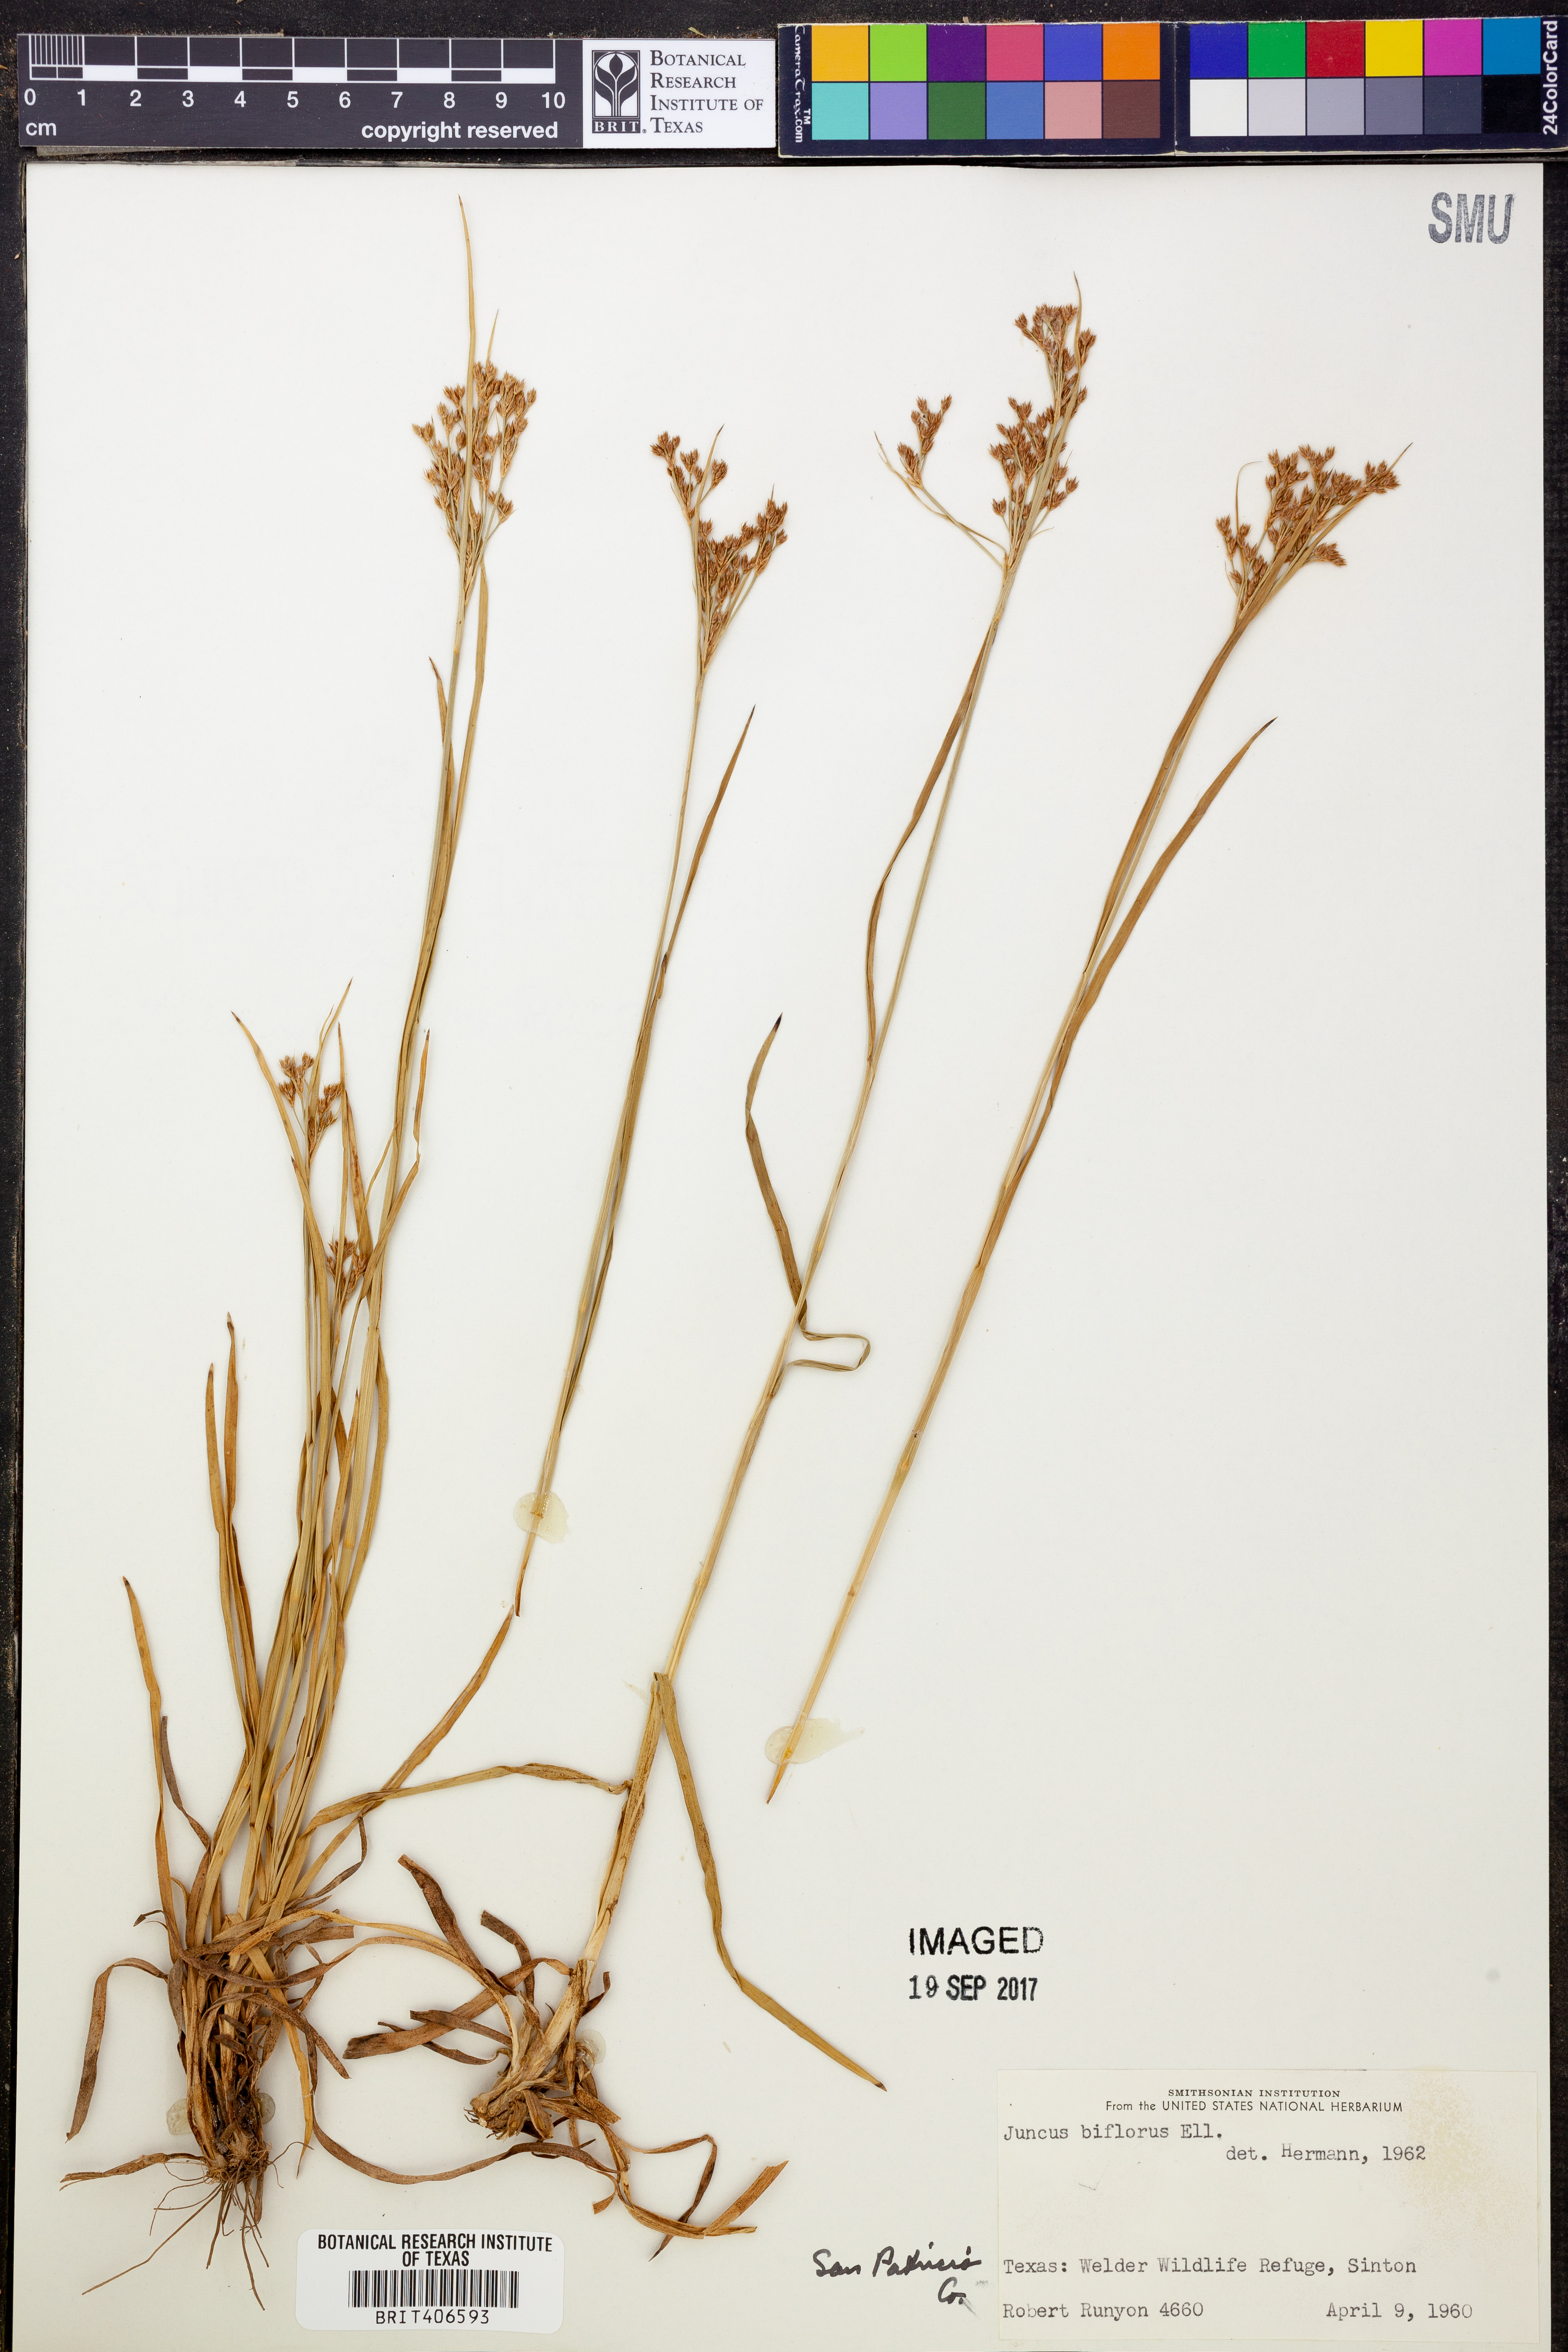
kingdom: Plantae
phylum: Tracheophyta
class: Liliopsida
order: Poales
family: Juncaceae
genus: Juncus
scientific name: Juncus biflorus
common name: Two-flowered rush
